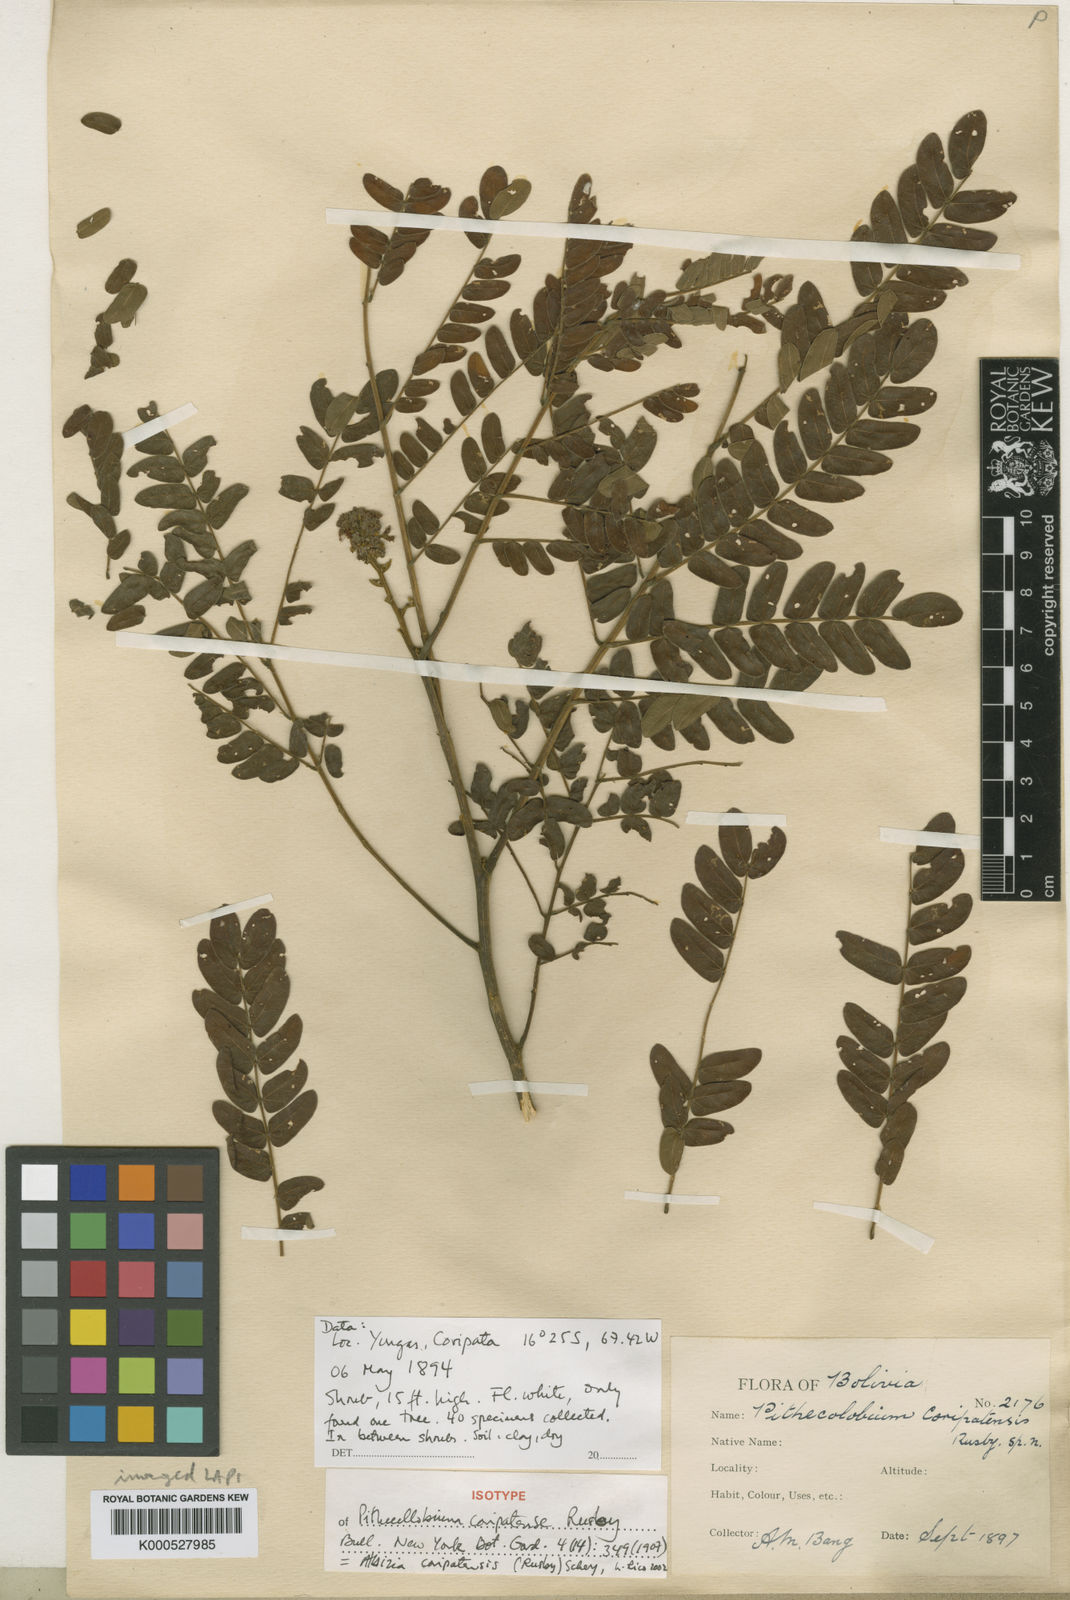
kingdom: Plantae
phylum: Tracheophyta
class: Magnoliopsida
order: Fabales
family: Fabaceae
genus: Albizia
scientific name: Albizia coripatensis
